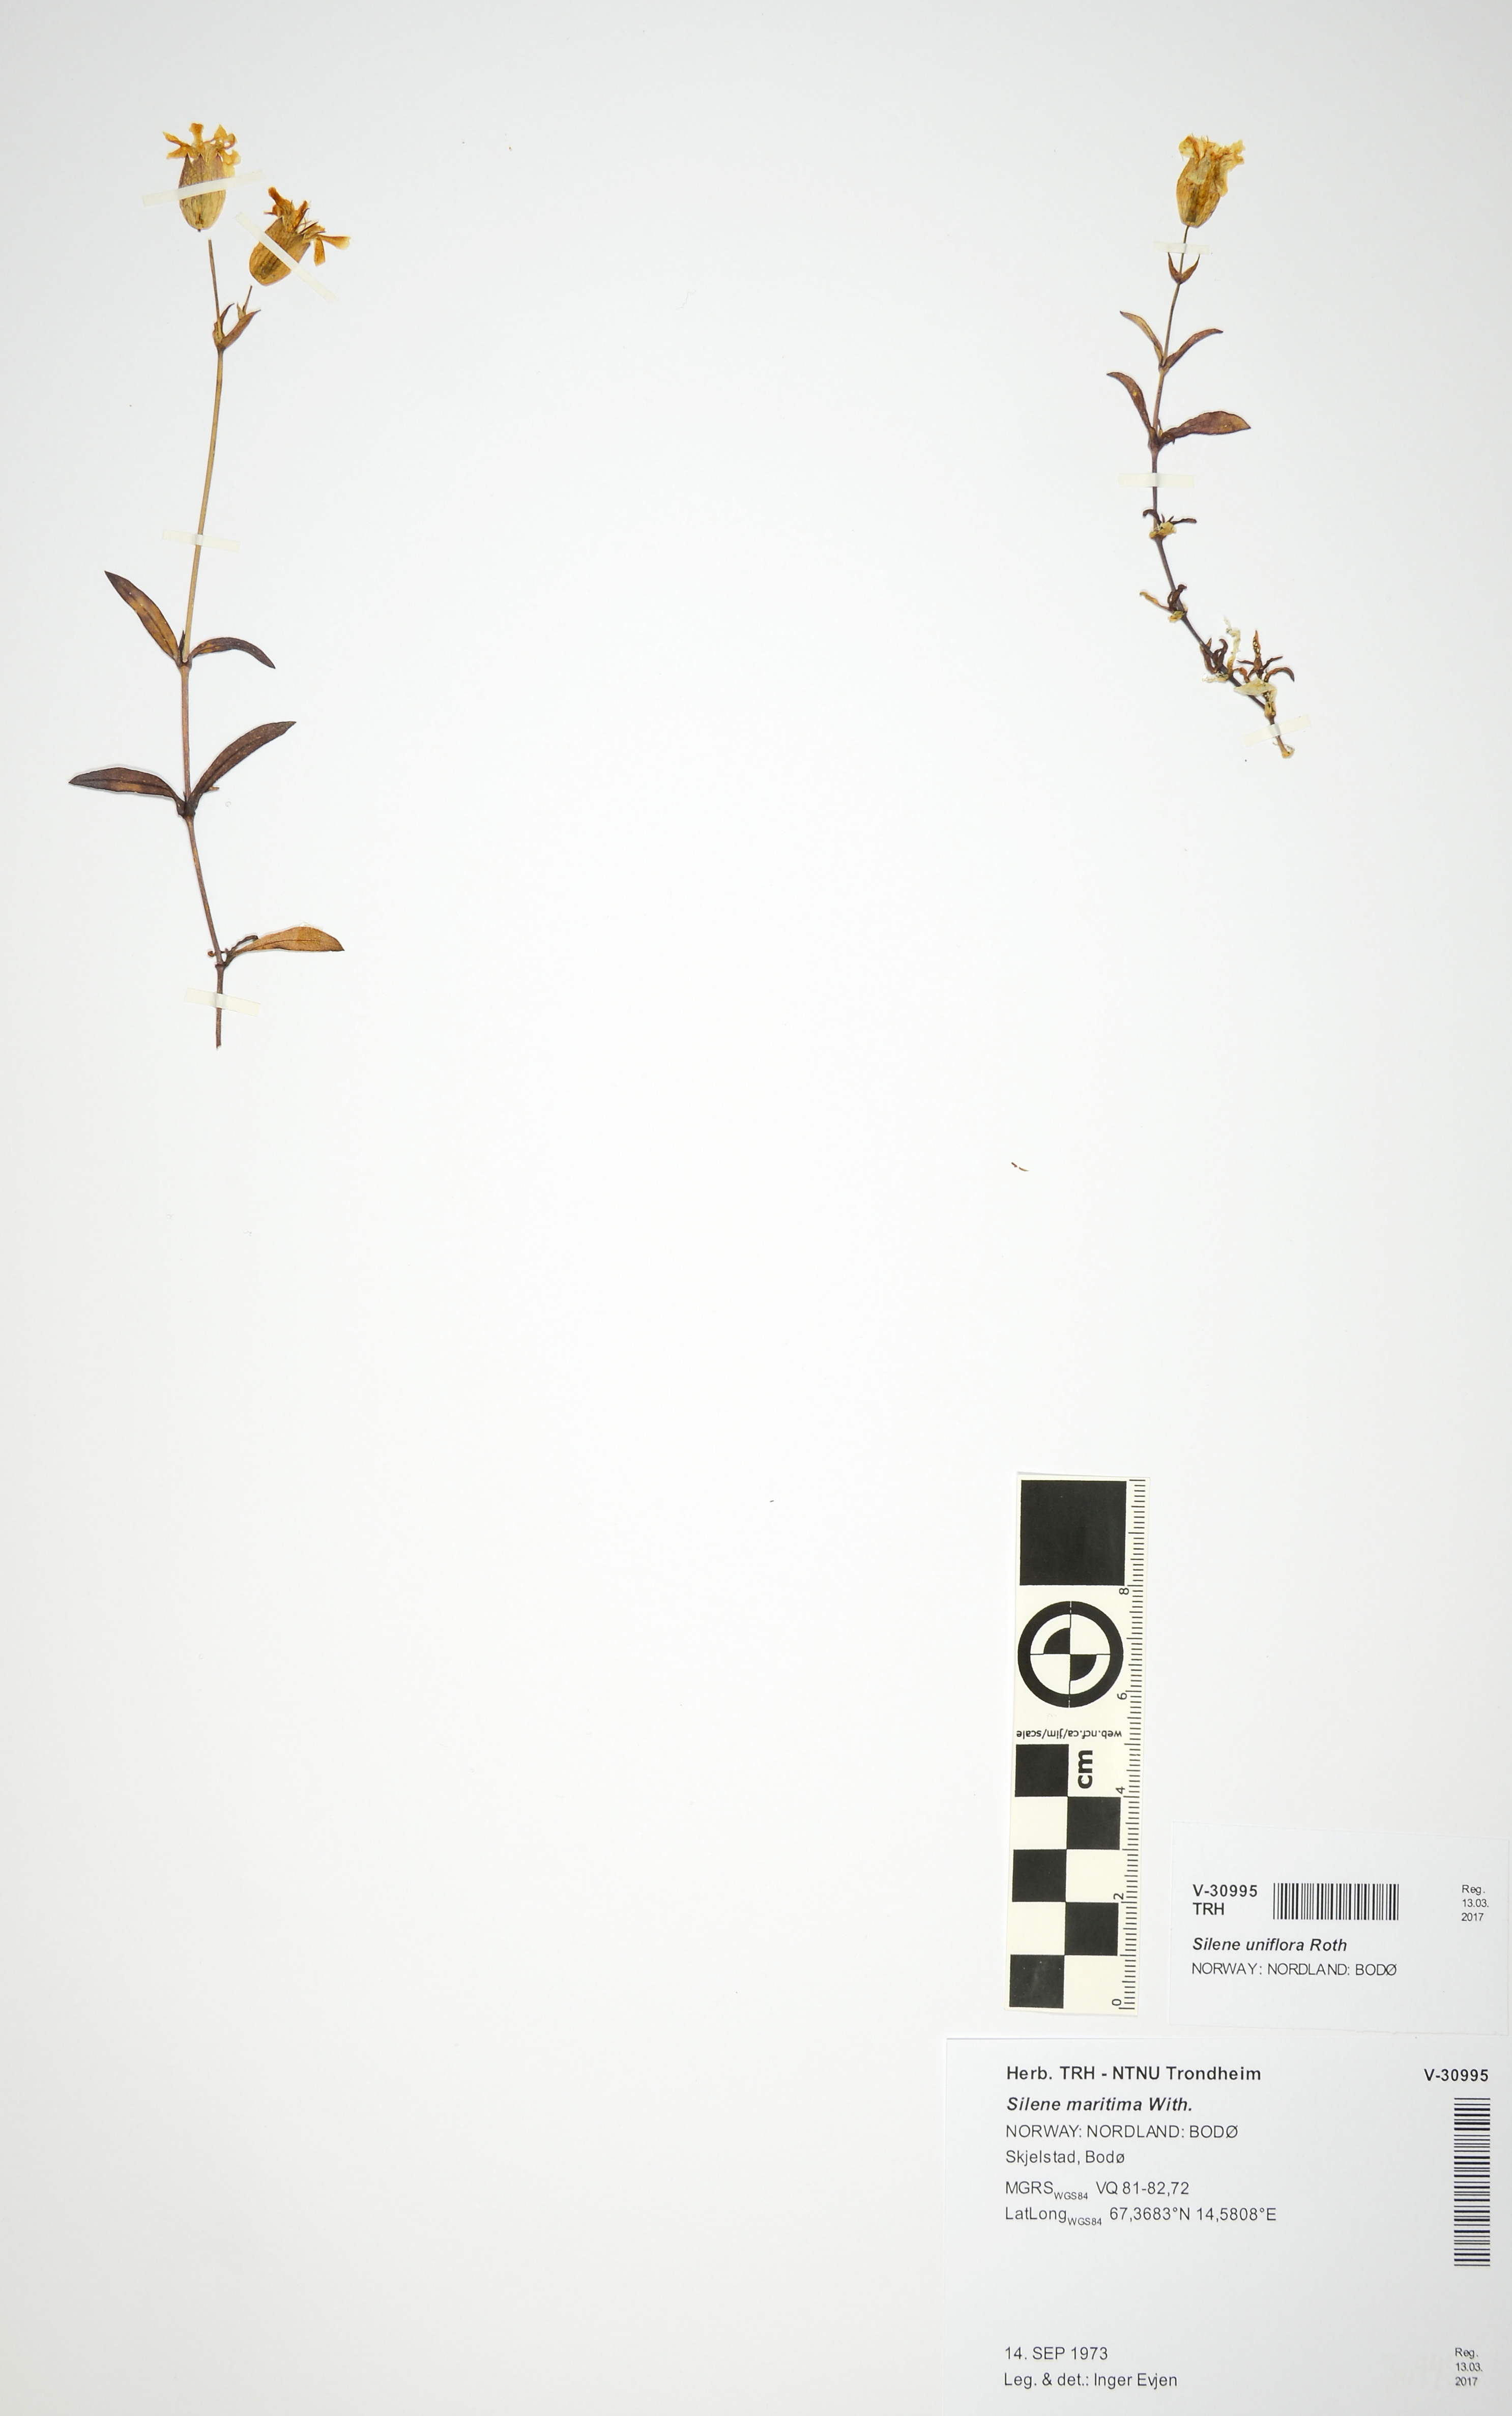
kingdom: Plantae
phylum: Tracheophyta
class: Magnoliopsida
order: Caryophyllales
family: Caryophyllaceae
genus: Silene
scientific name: Silene uniflora
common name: Sea campion
